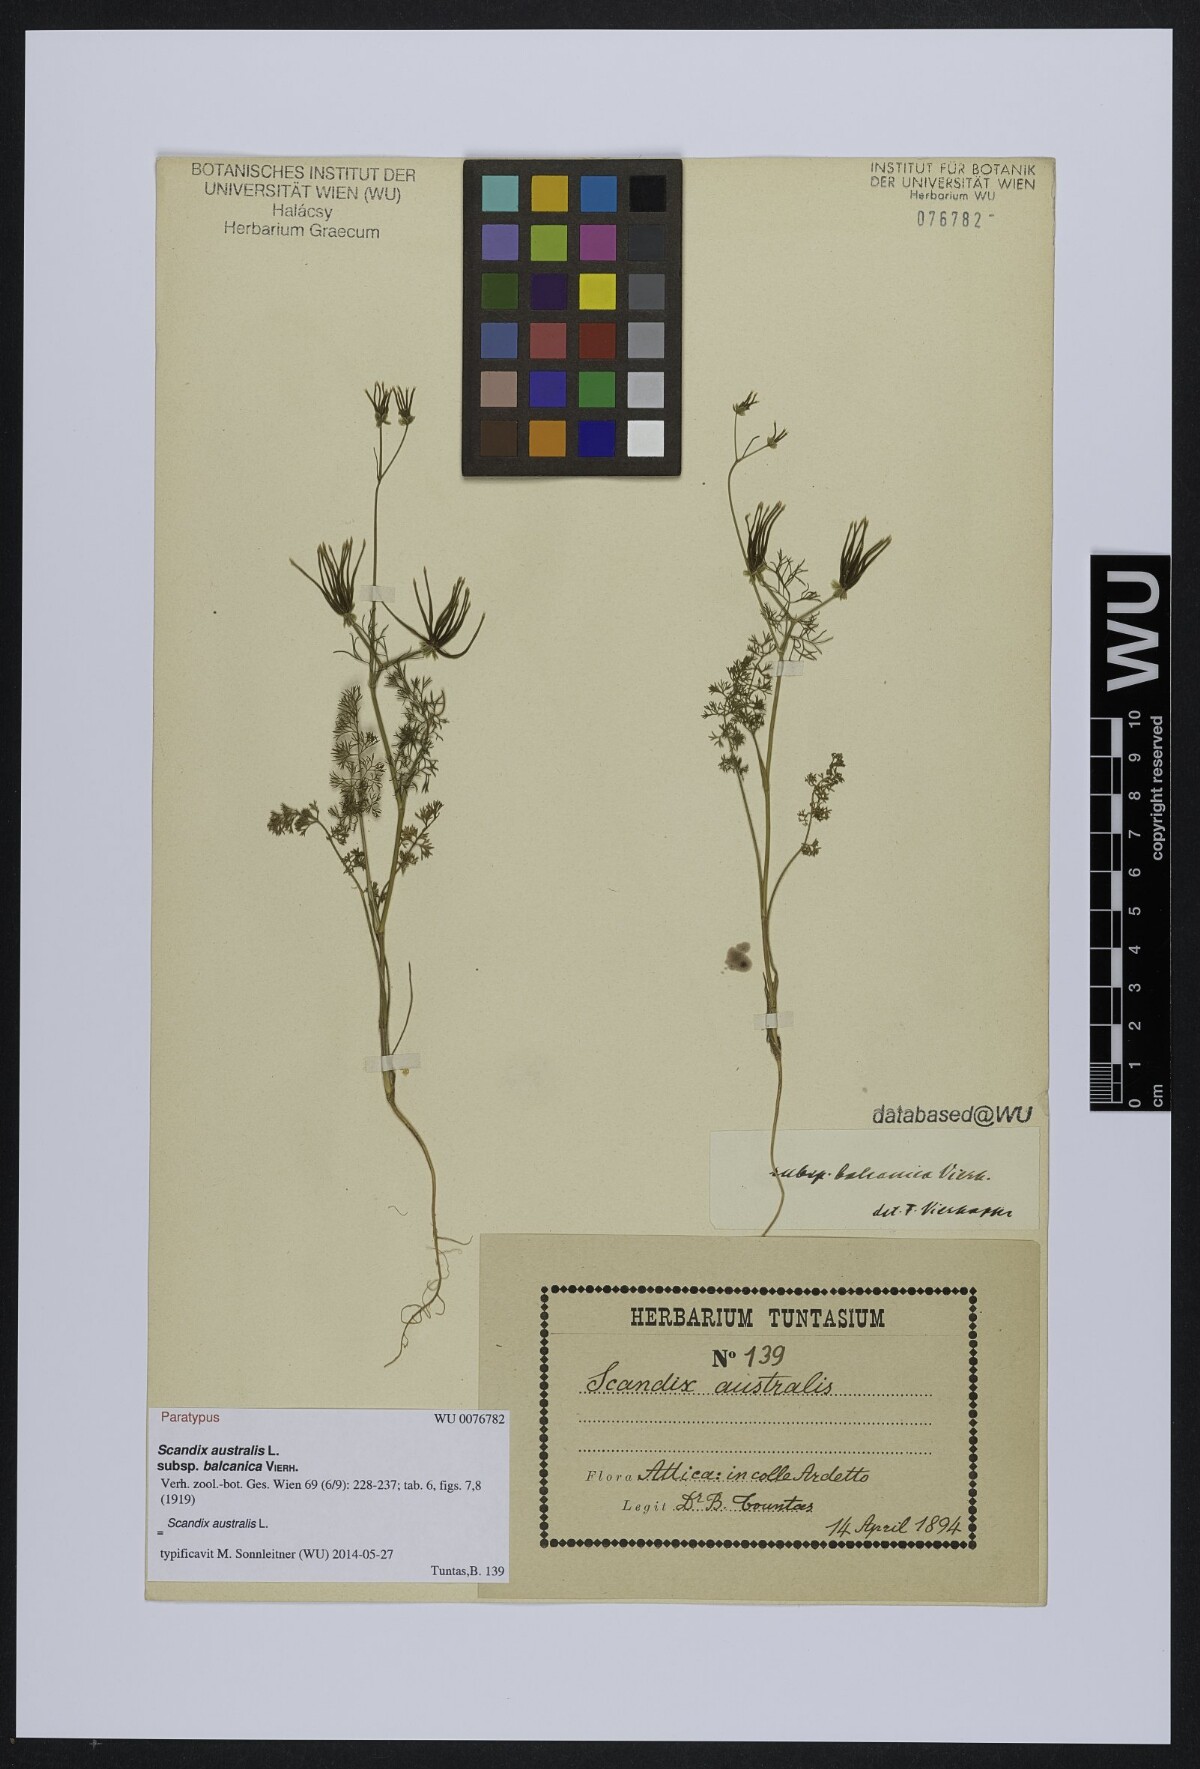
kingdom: Plantae
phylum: Tracheophyta
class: Magnoliopsida
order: Apiales
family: Apiaceae
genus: Scandix
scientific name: Scandix australis
